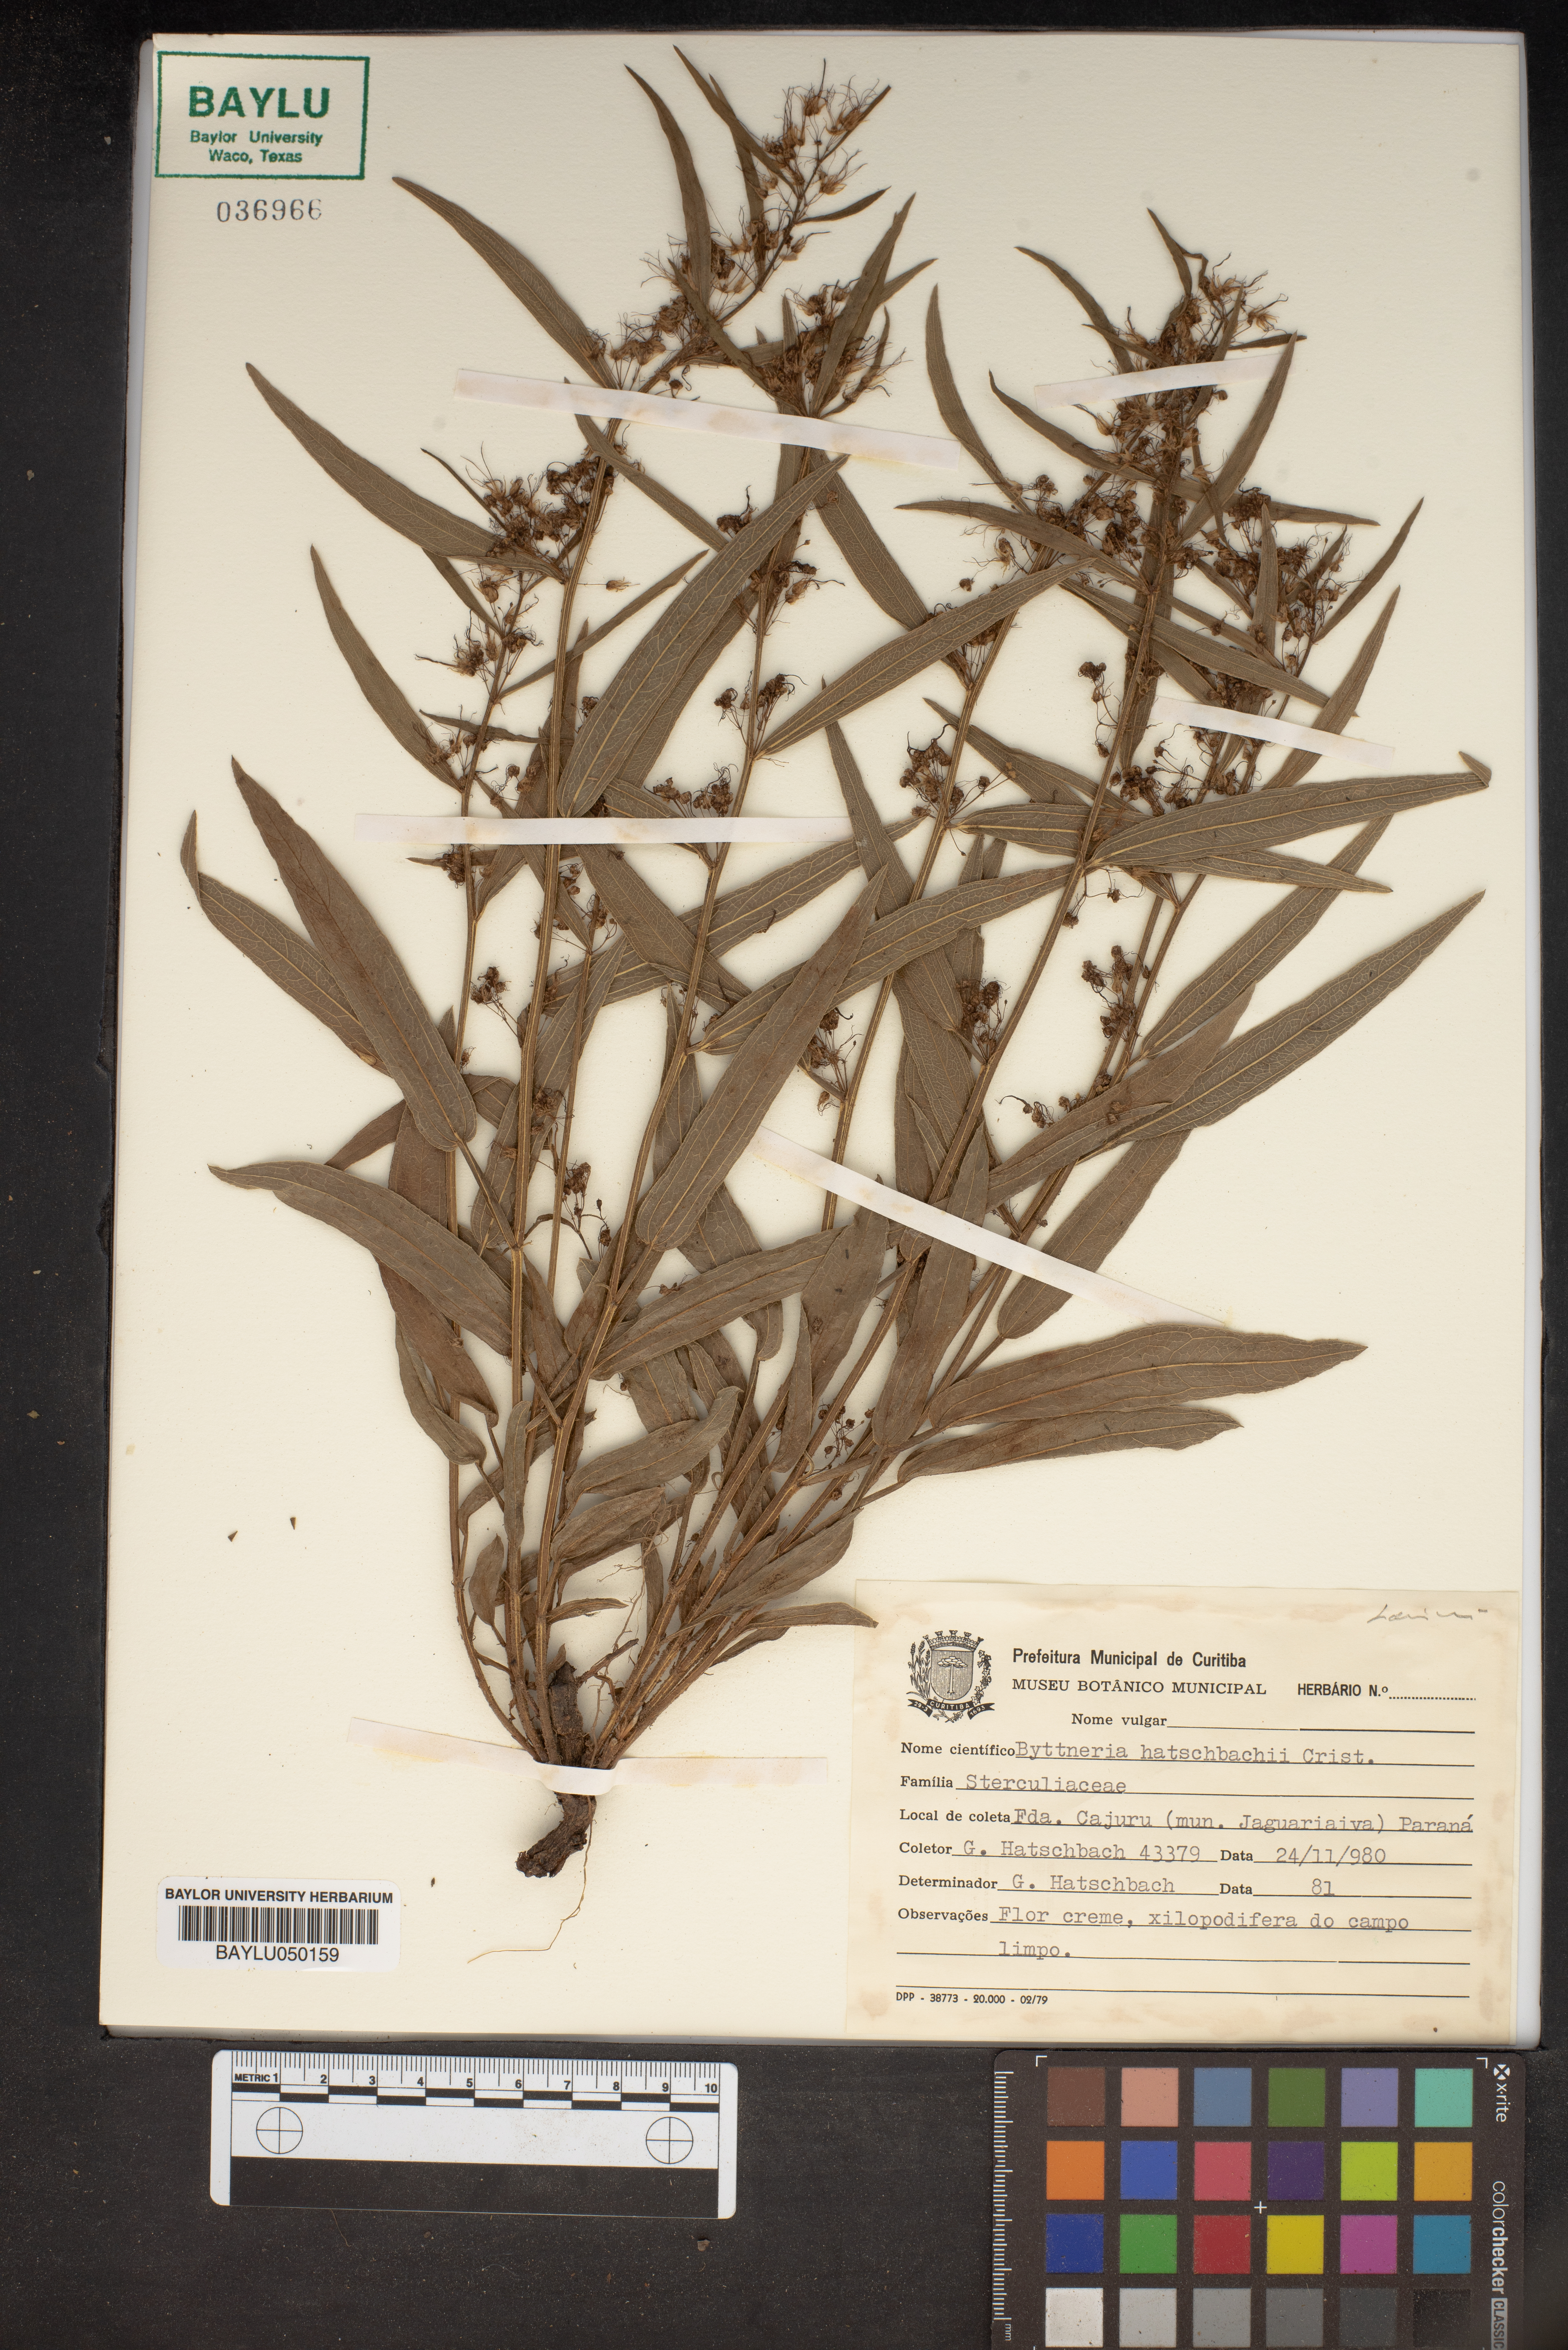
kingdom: Plantae
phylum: Tracheophyta
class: Magnoliopsida
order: Malvales
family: Malvaceae
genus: Byttneria
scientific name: Byttneria hatschbachii
